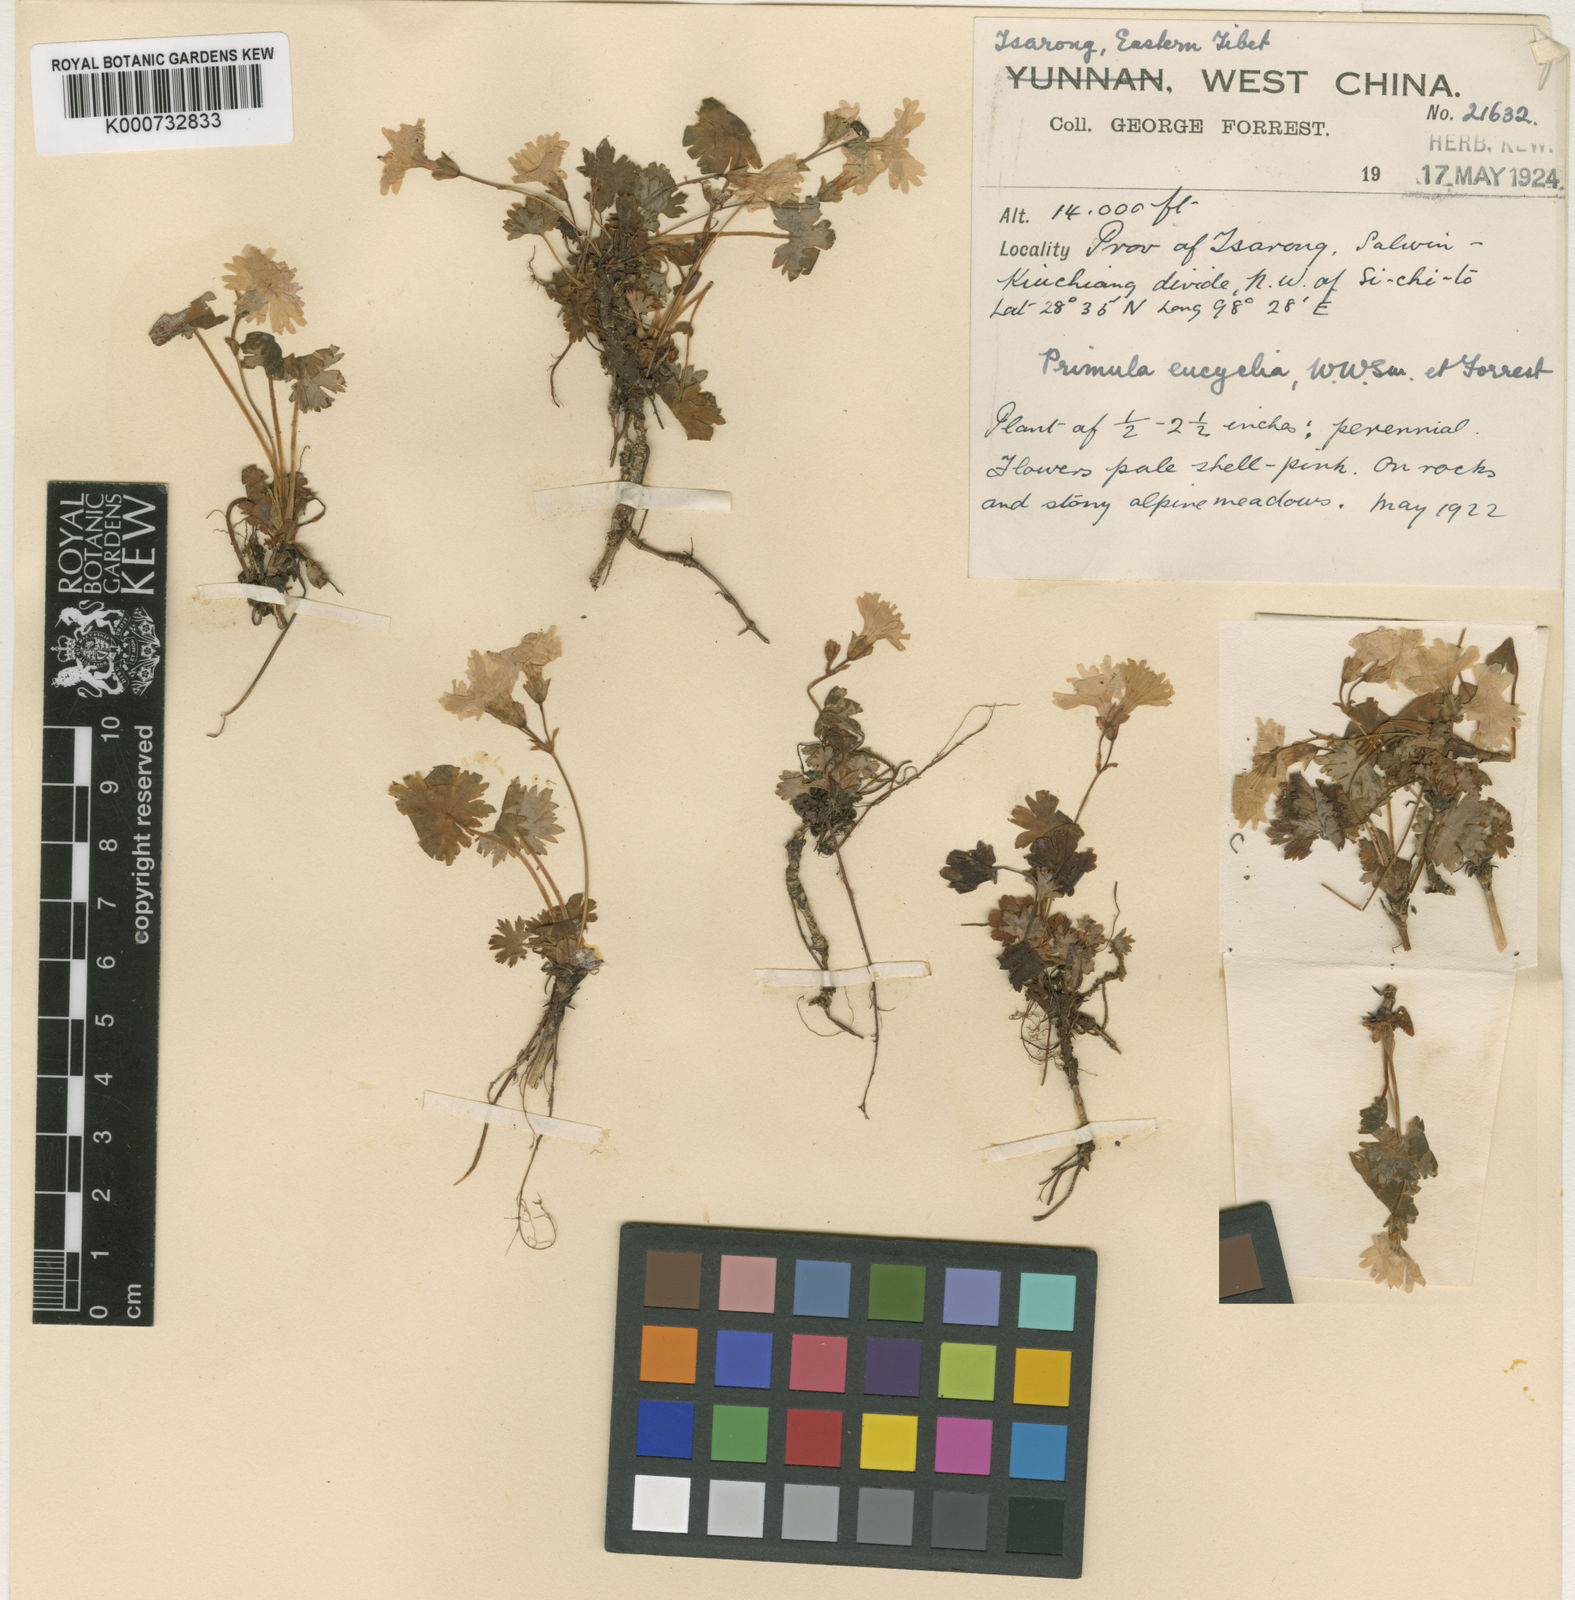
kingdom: Plantae
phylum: Tracheophyta
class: Magnoliopsida
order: Ericales
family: Primulaceae
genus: Primula
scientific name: Primula vaginata
